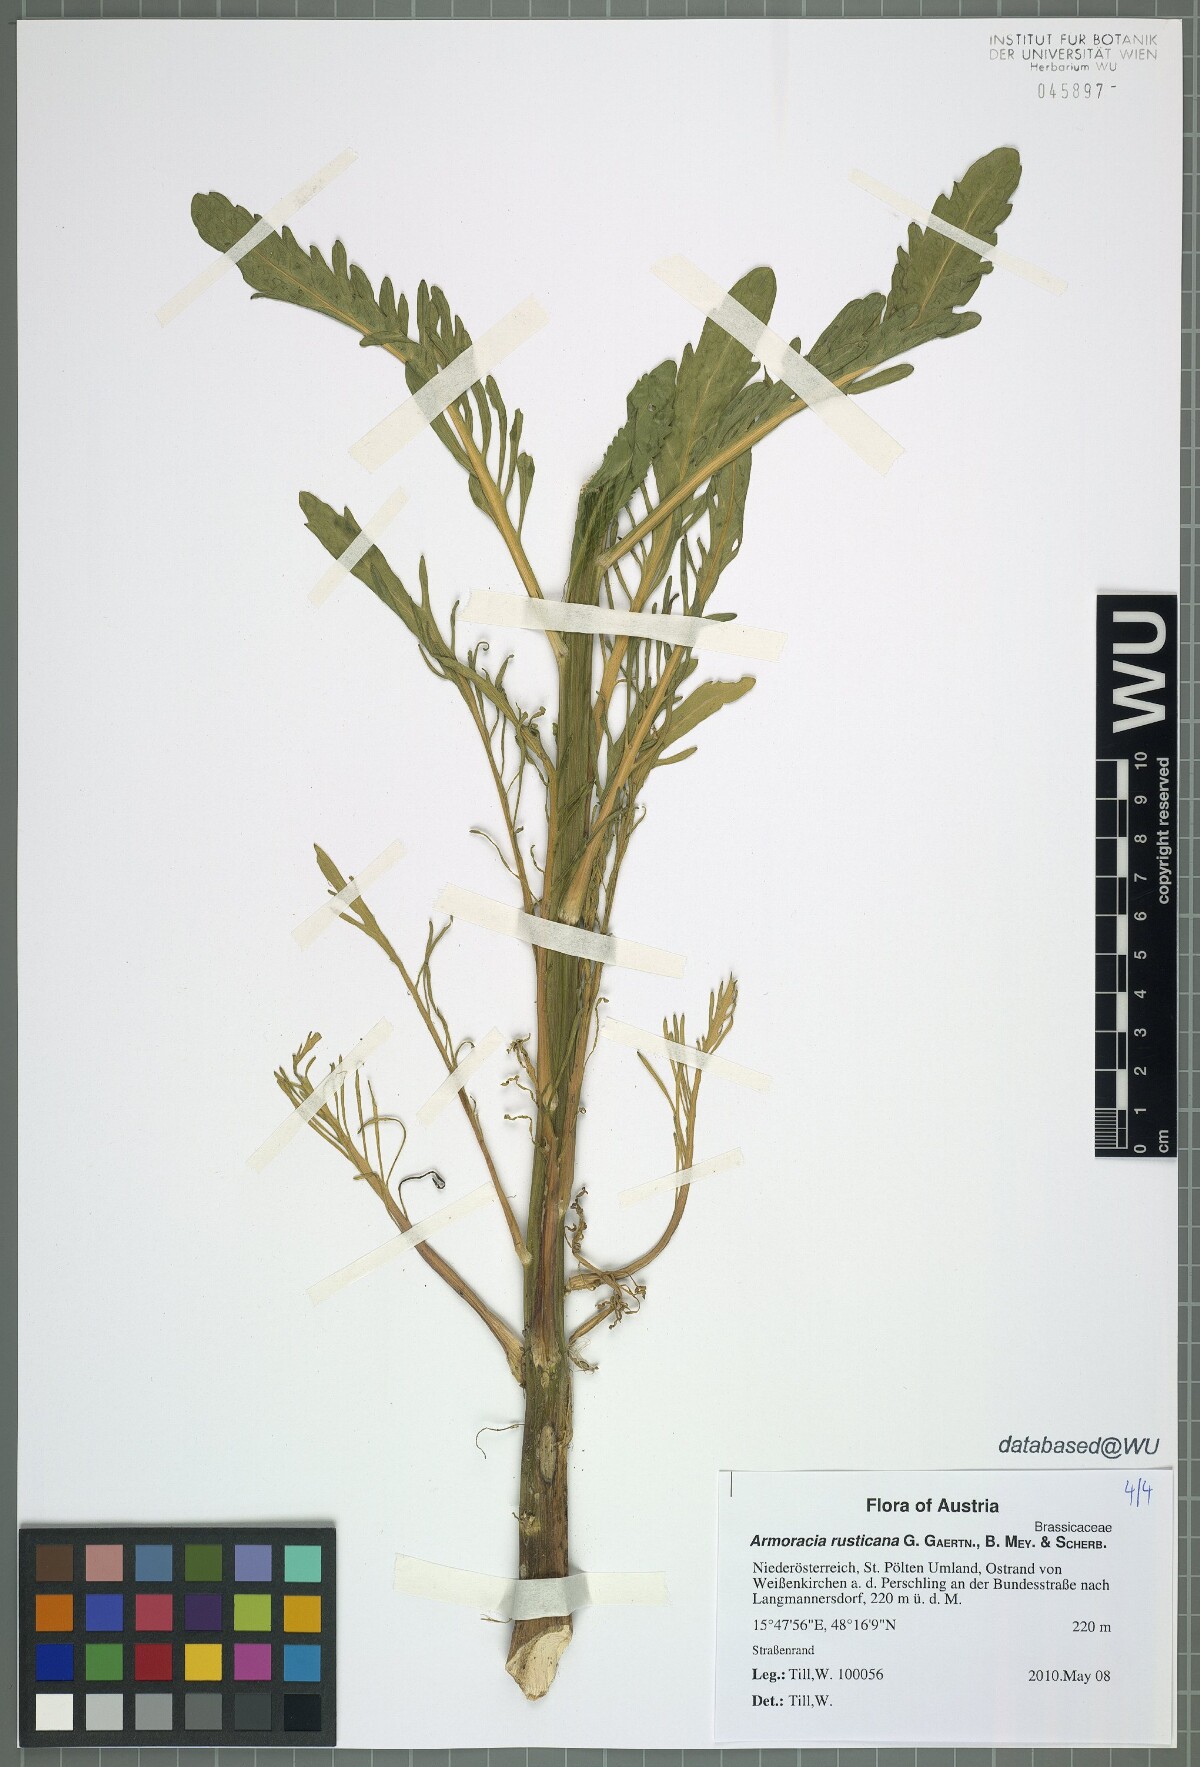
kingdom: Plantae
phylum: Tracheophyta
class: Magnoliopsida
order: Brassicales
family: Brassicaceae
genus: Armoracia
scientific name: Armoracia rusticana
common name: Horseradish
